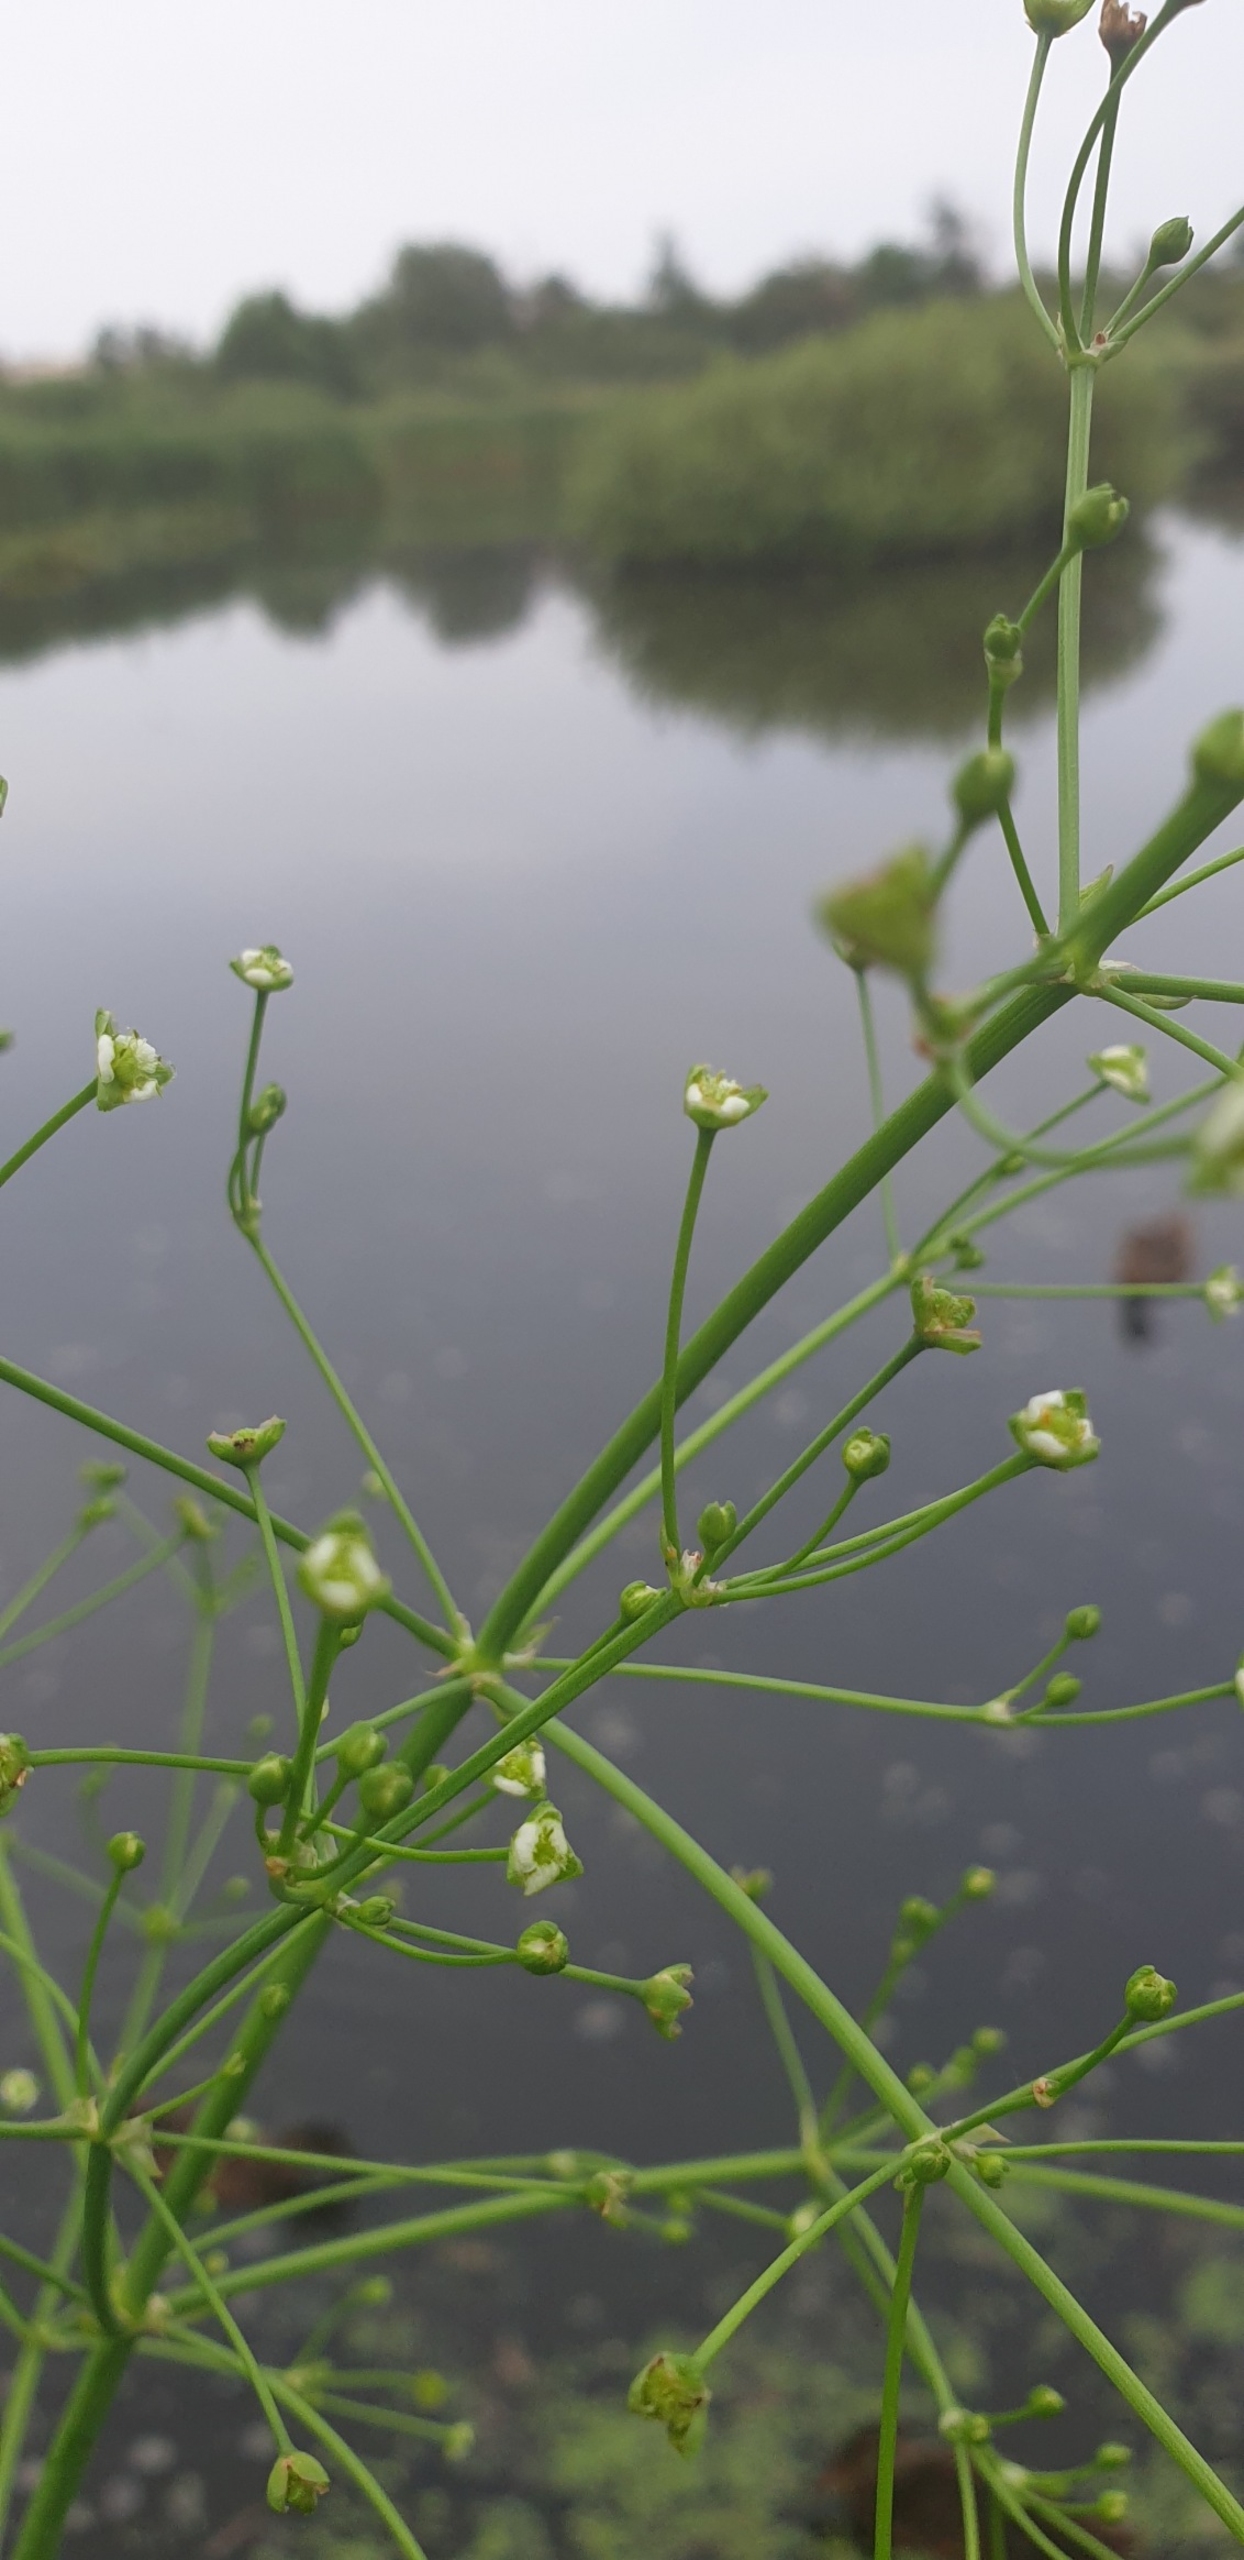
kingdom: Plantae
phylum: Tracheophyta
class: Liliopsida
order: Alismatales
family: Alismataceae
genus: Alisma
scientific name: Alisma plantago-aquatica
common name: Vejbred-skeblad
